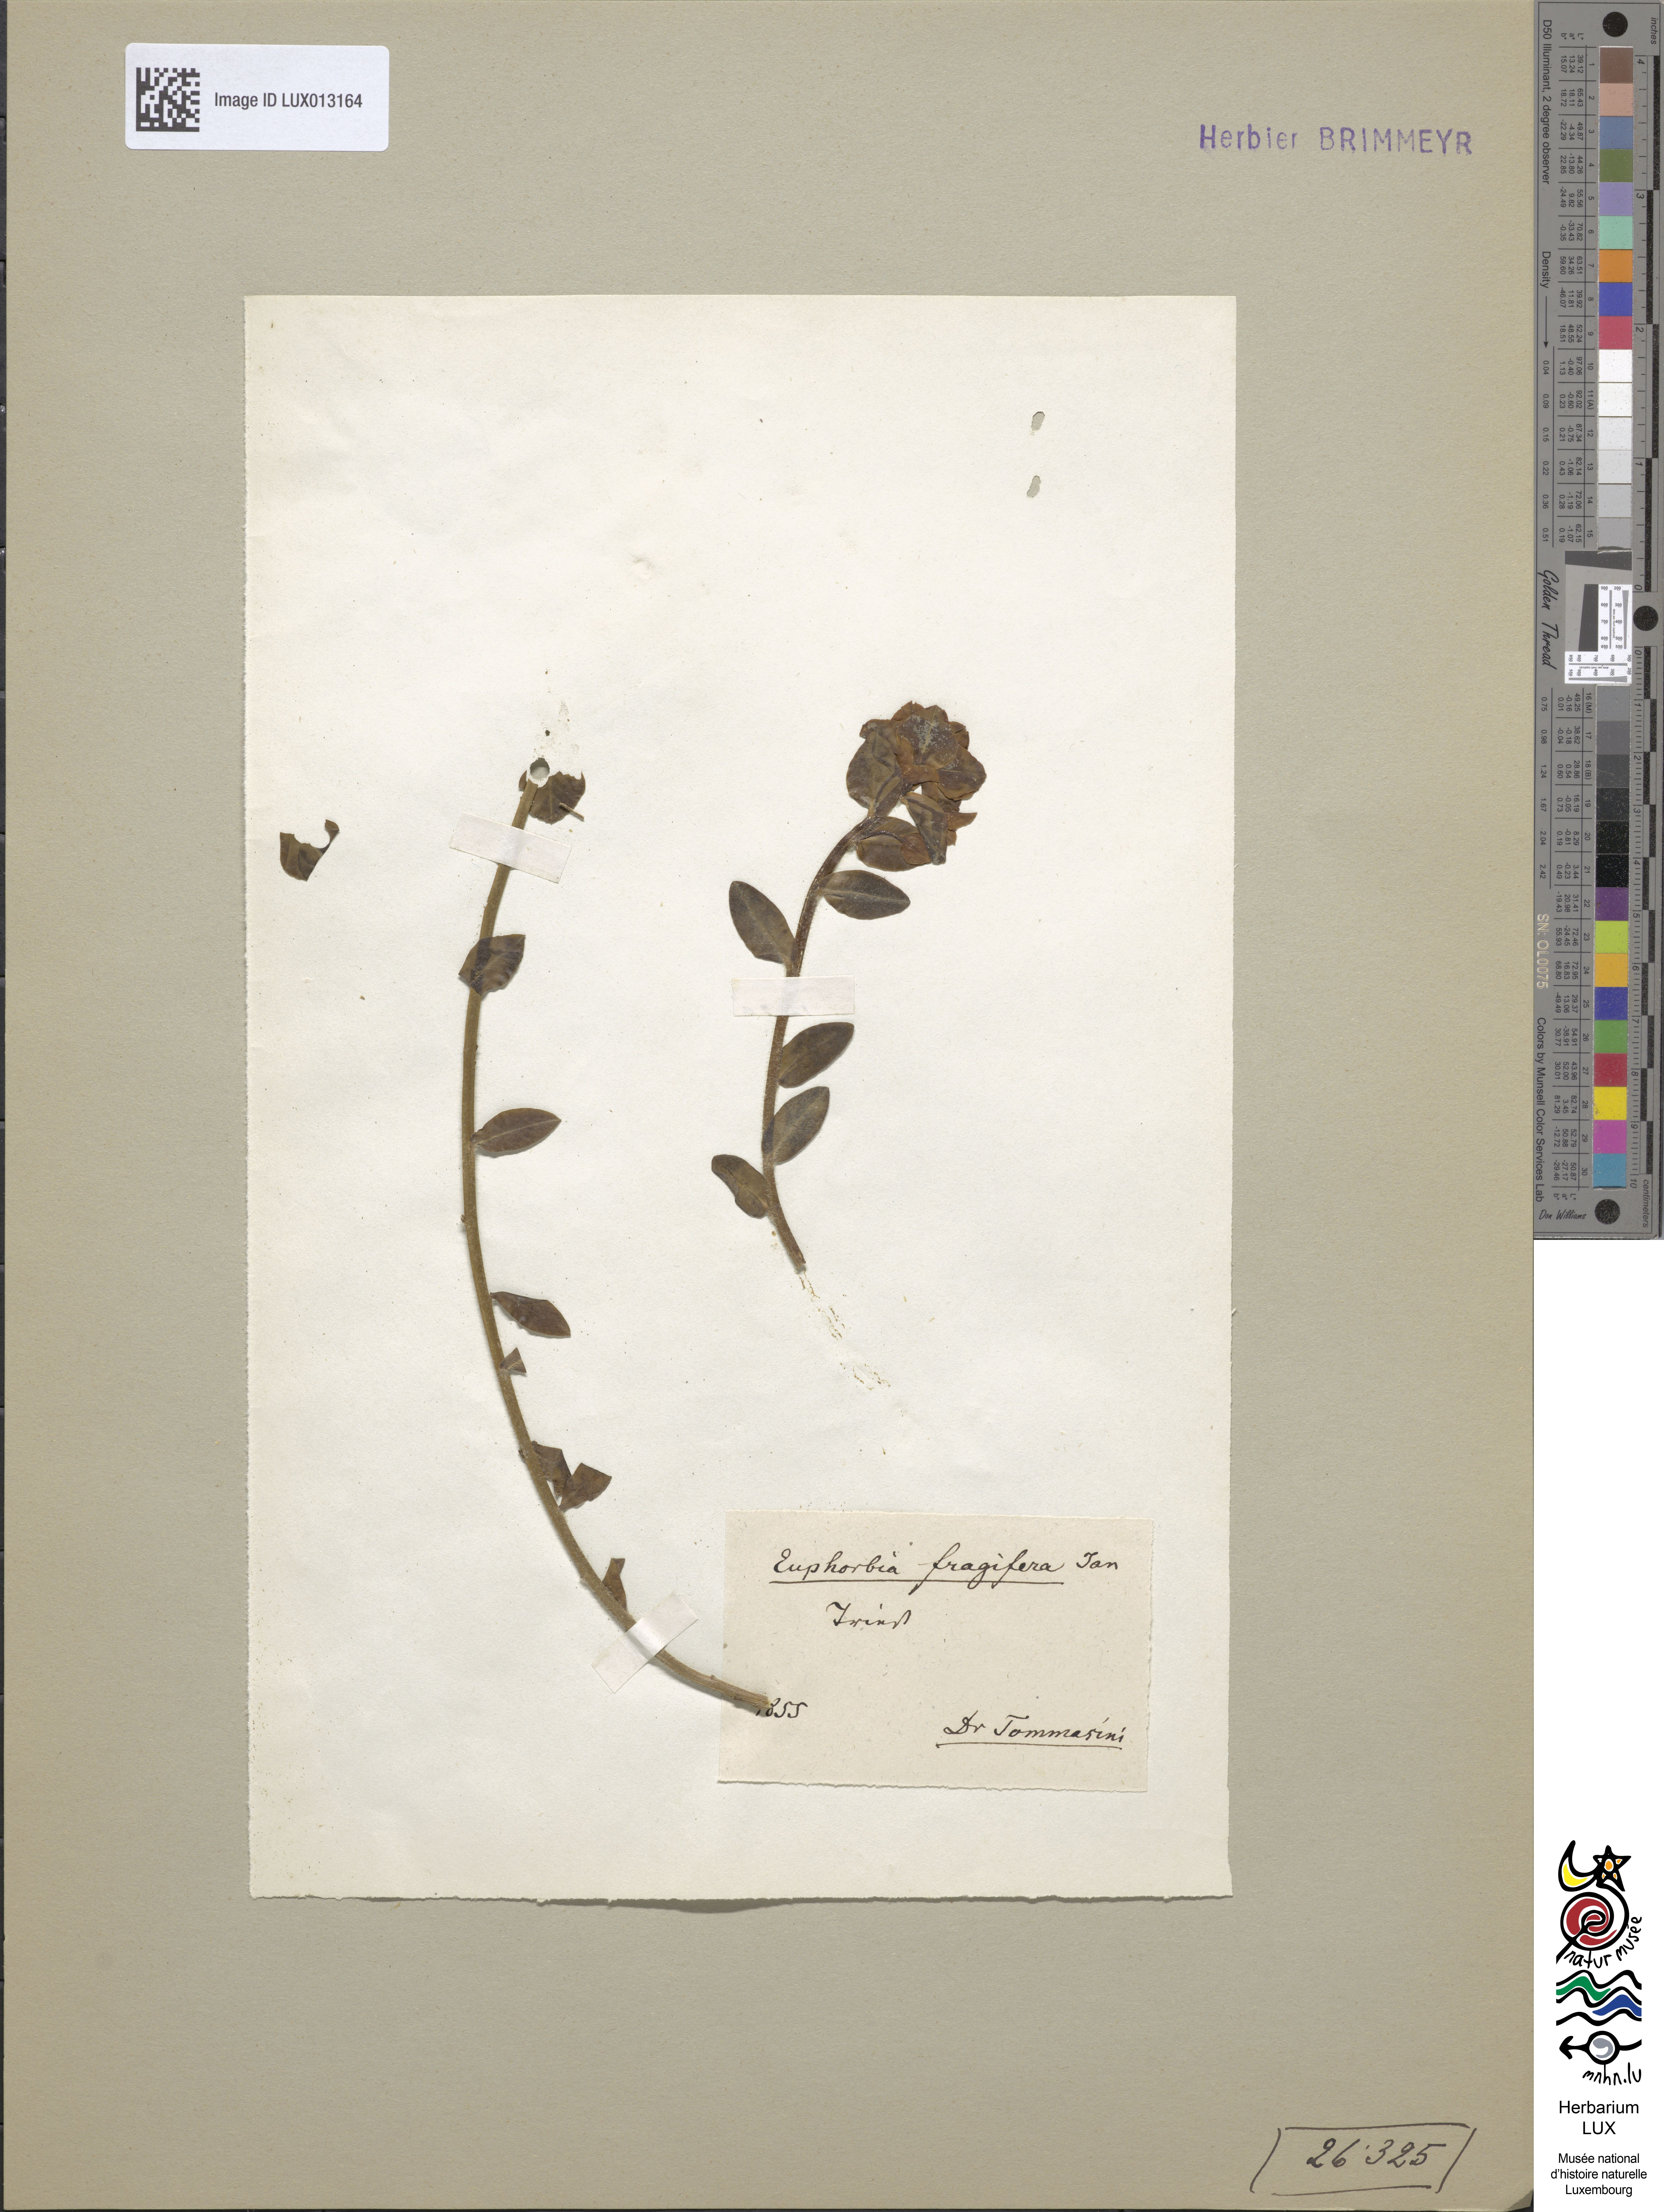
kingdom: Plantae
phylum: Tracheophyta
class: Magnoliopsida
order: Malpighiales
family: Euphorbiaceae
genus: Euphorbia
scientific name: Euphorbia fragifera
